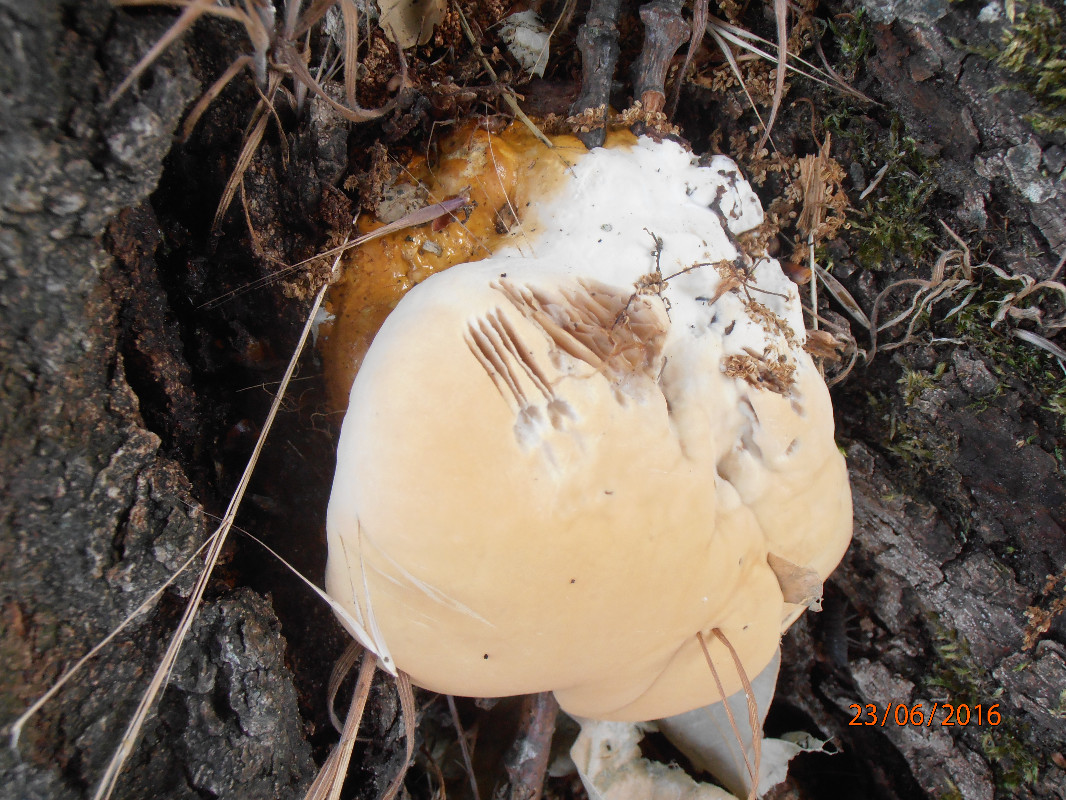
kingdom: Fungi
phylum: Basidiomycota
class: Agaricomycetes
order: Polyporales
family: Polyporaceae
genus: Ganoderma
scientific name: Ganoderma resinaceum
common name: gyldenbrun lakporesvamp
